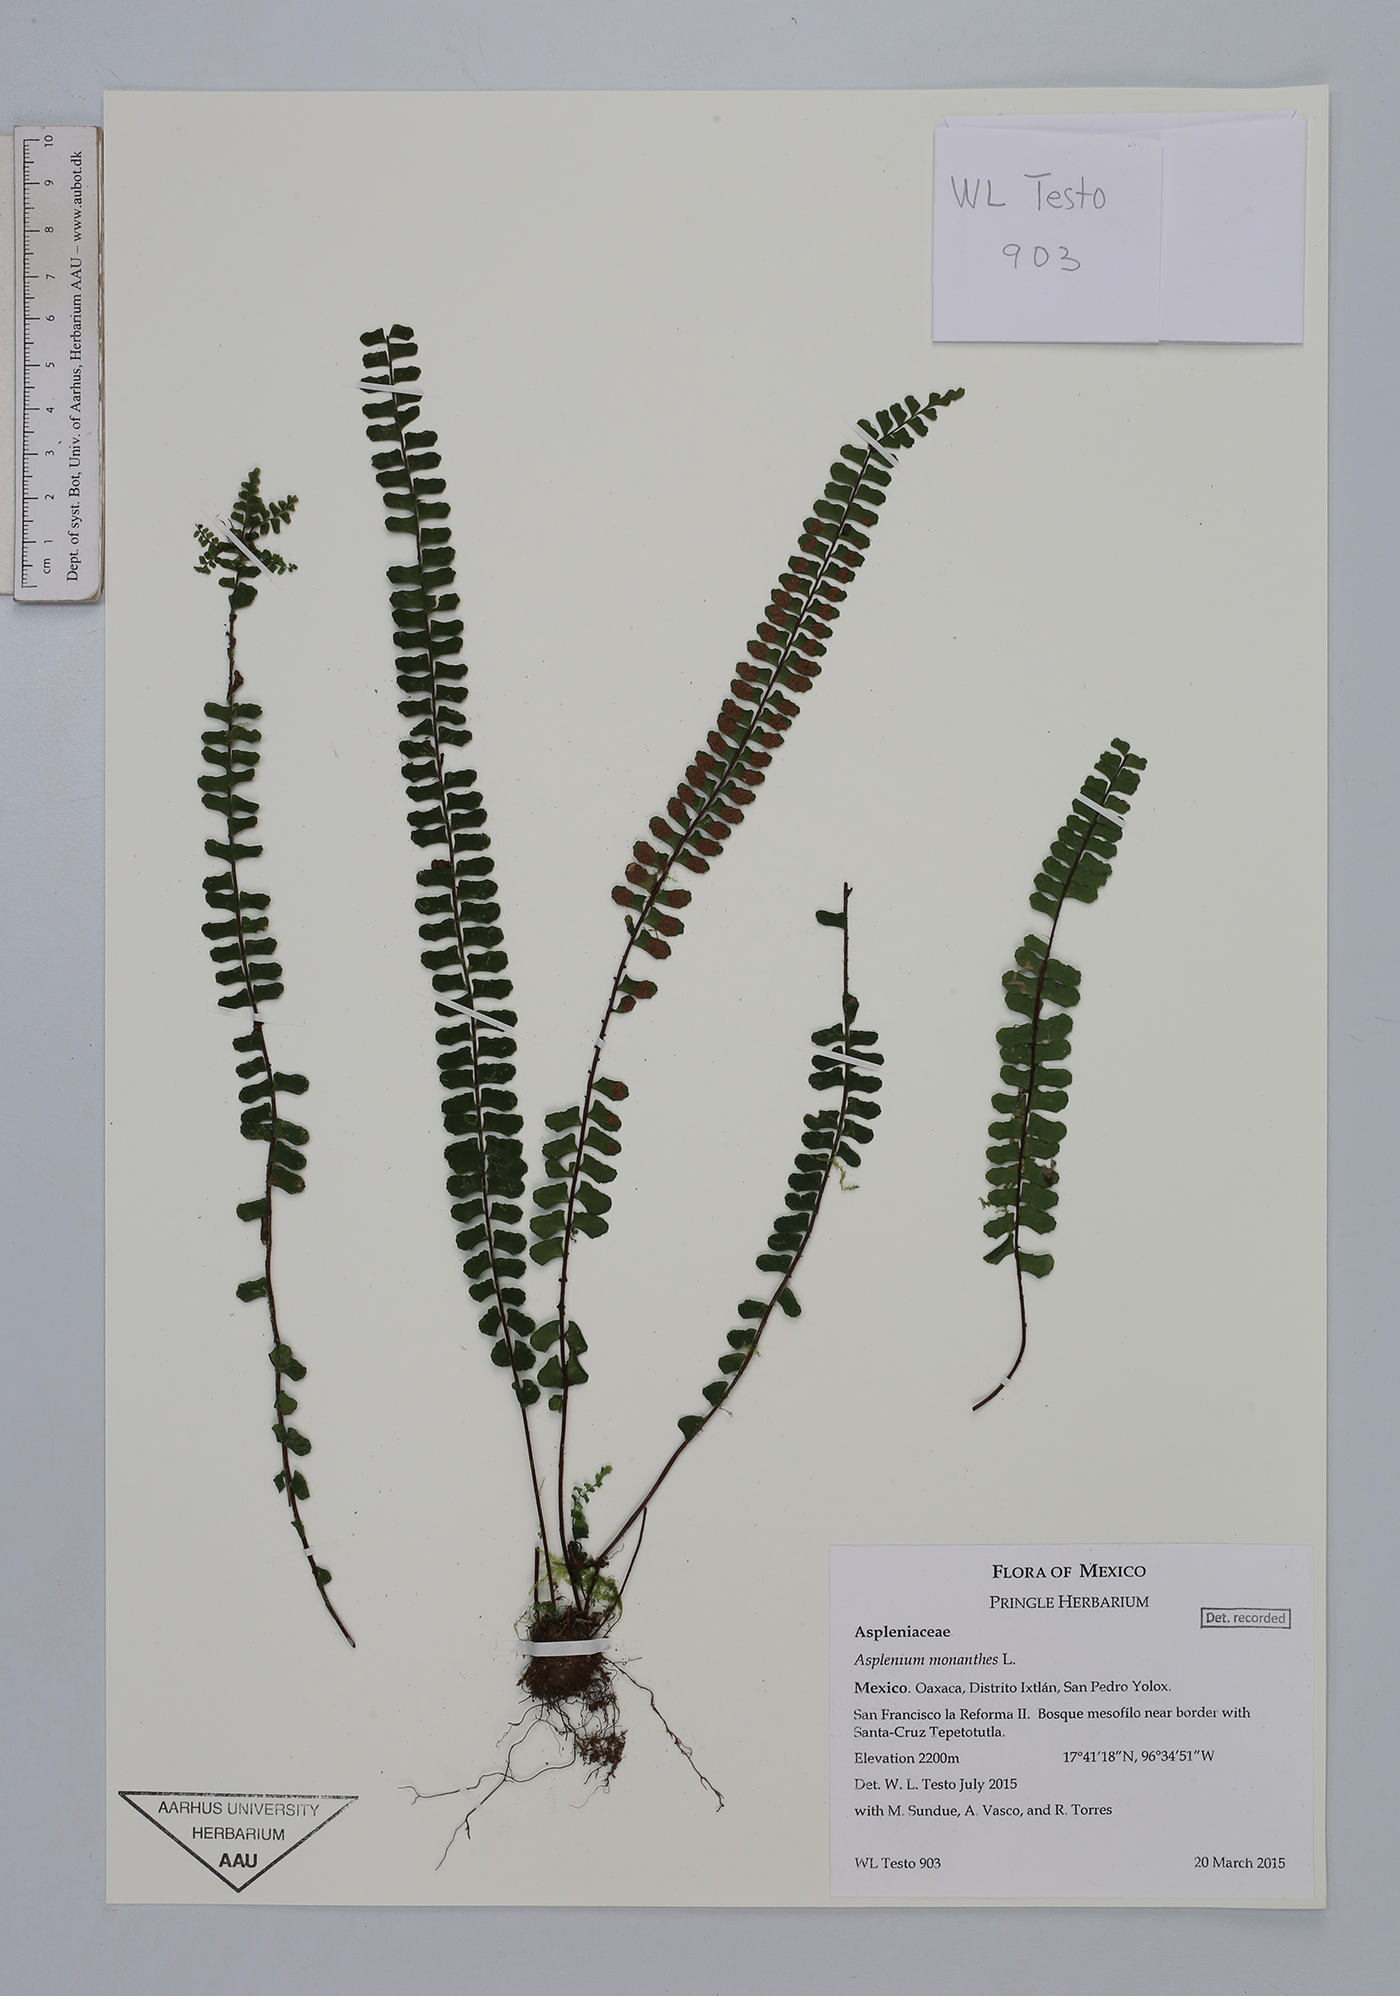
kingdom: Plantae
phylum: Tracheophyta
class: Polypodiopsida
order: Polypodiales
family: Aspleniaceae
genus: Asplenium
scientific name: Asplenium monanthes
